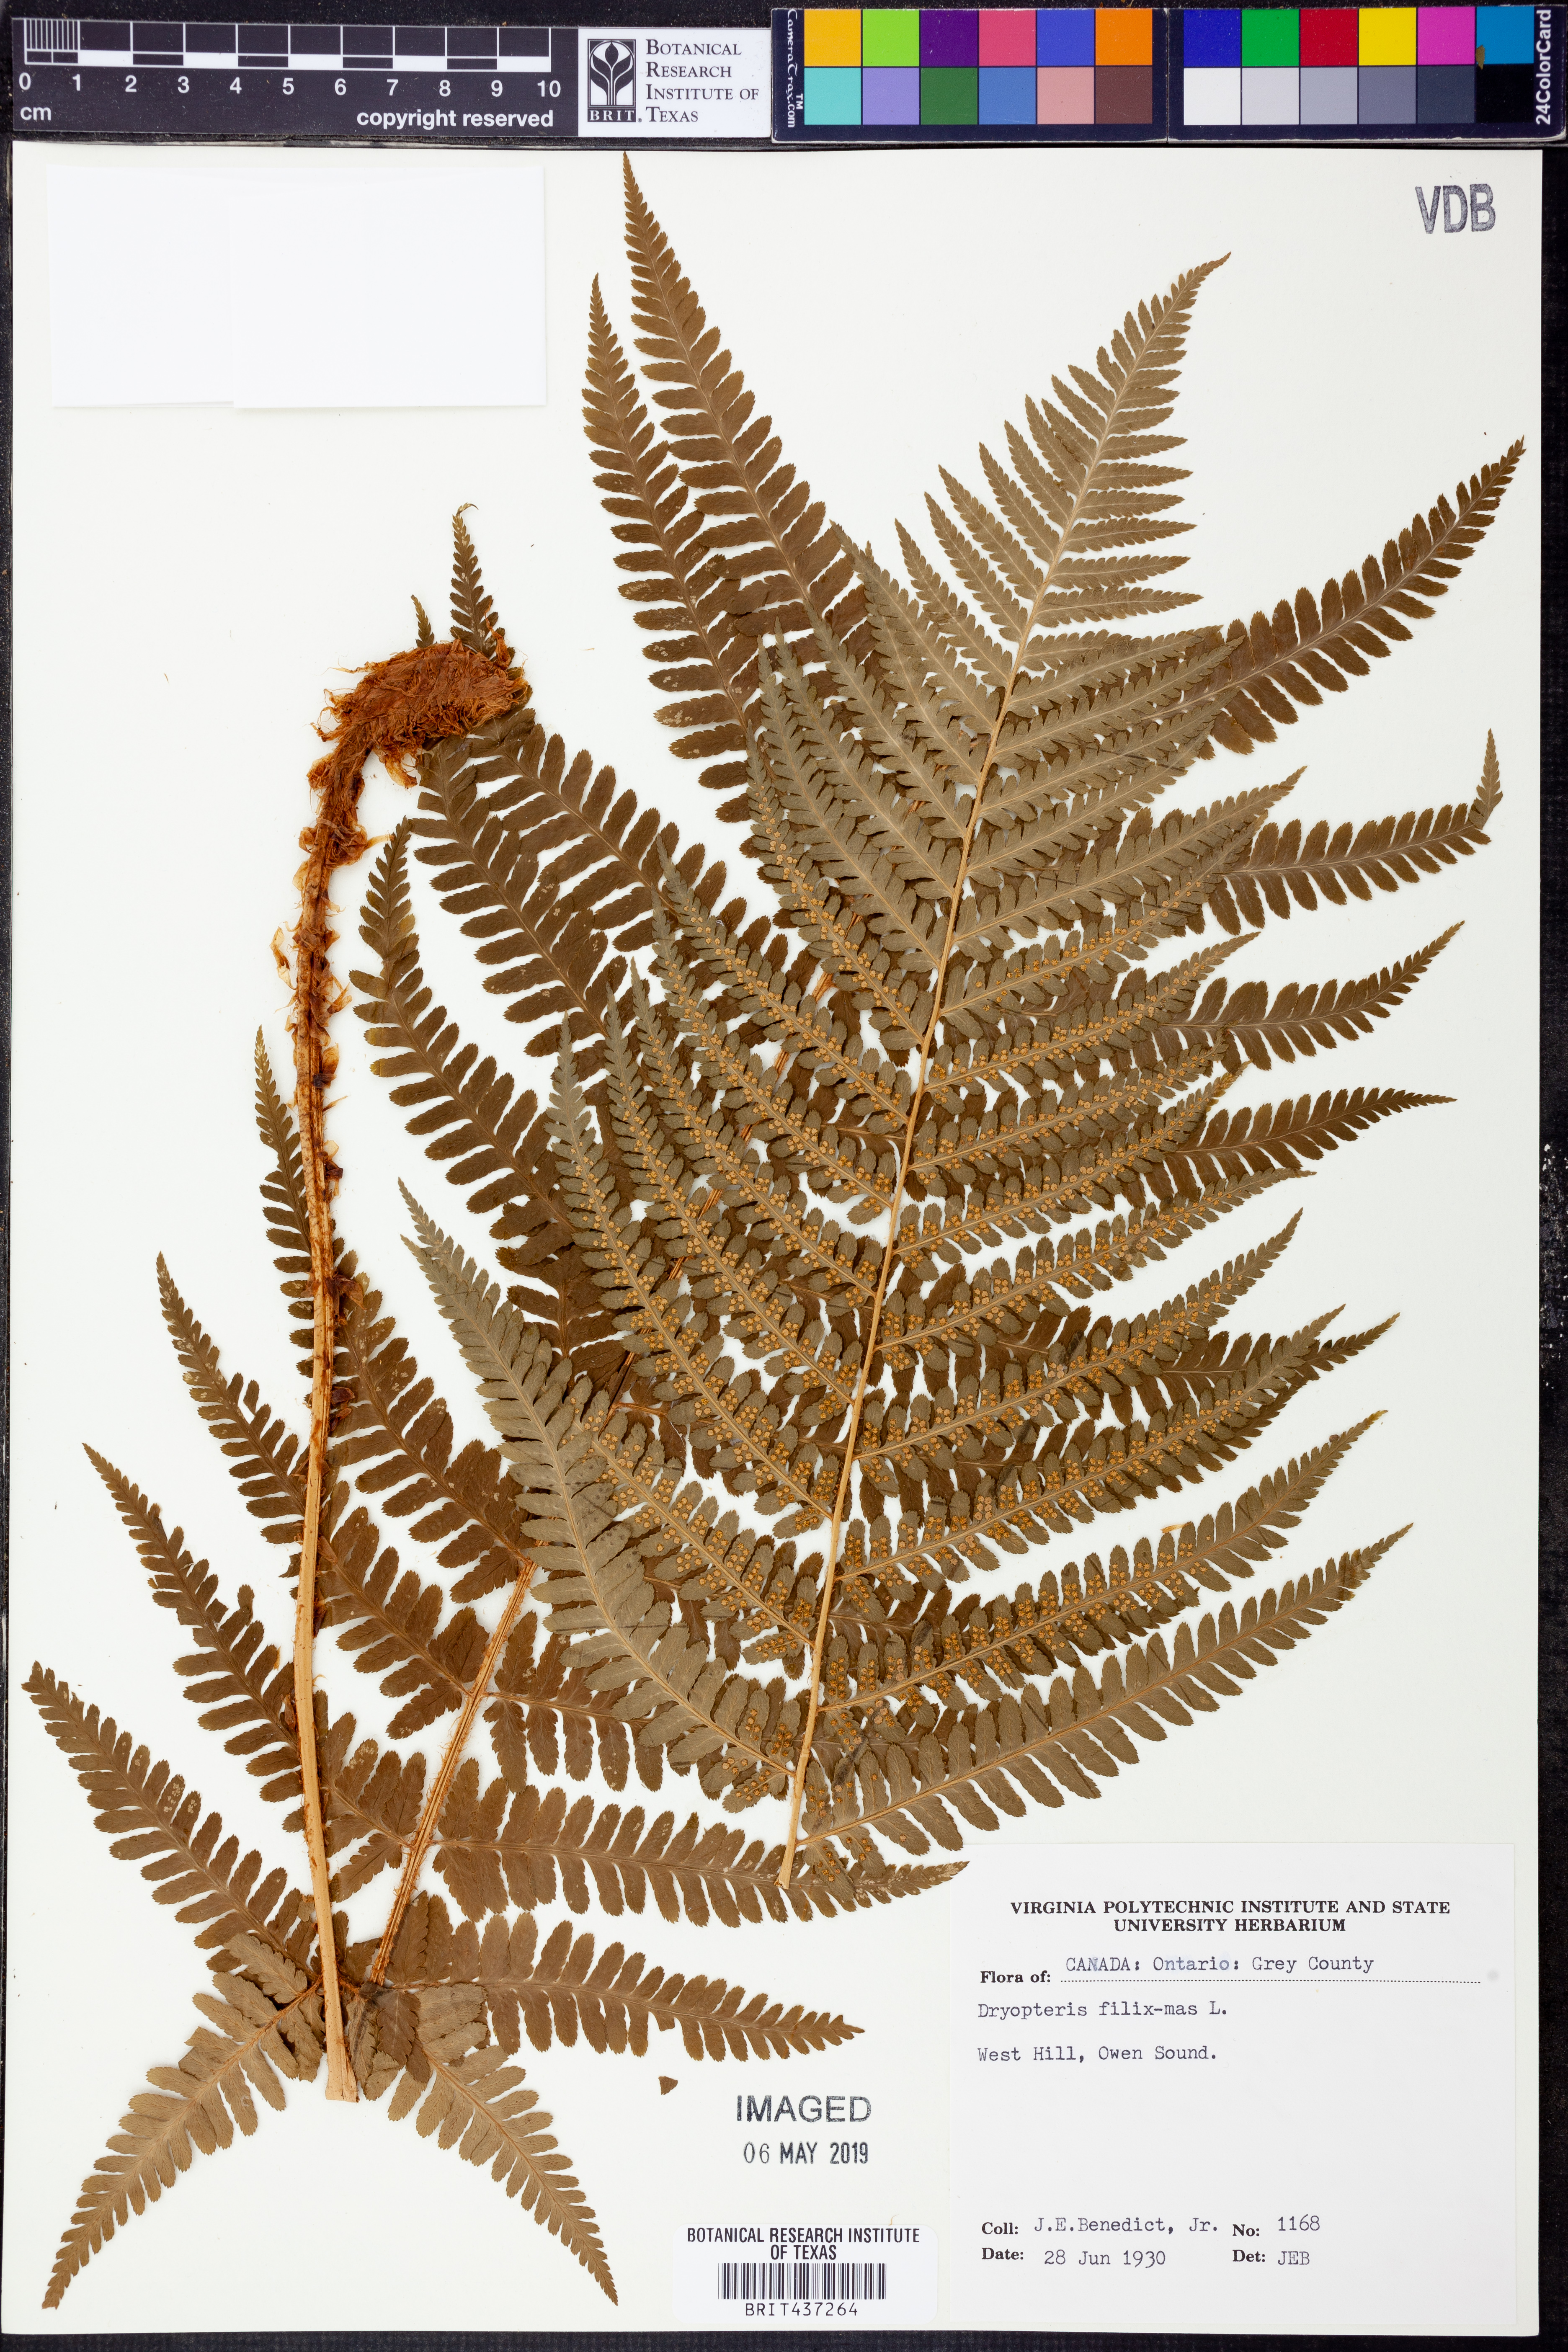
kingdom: Plantae
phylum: Tracheophyta
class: Polypodiopsida
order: Polypodiales
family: Dryopteridaceae
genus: Dryopteris
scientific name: Dryopteris filix-mas
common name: Male fern
